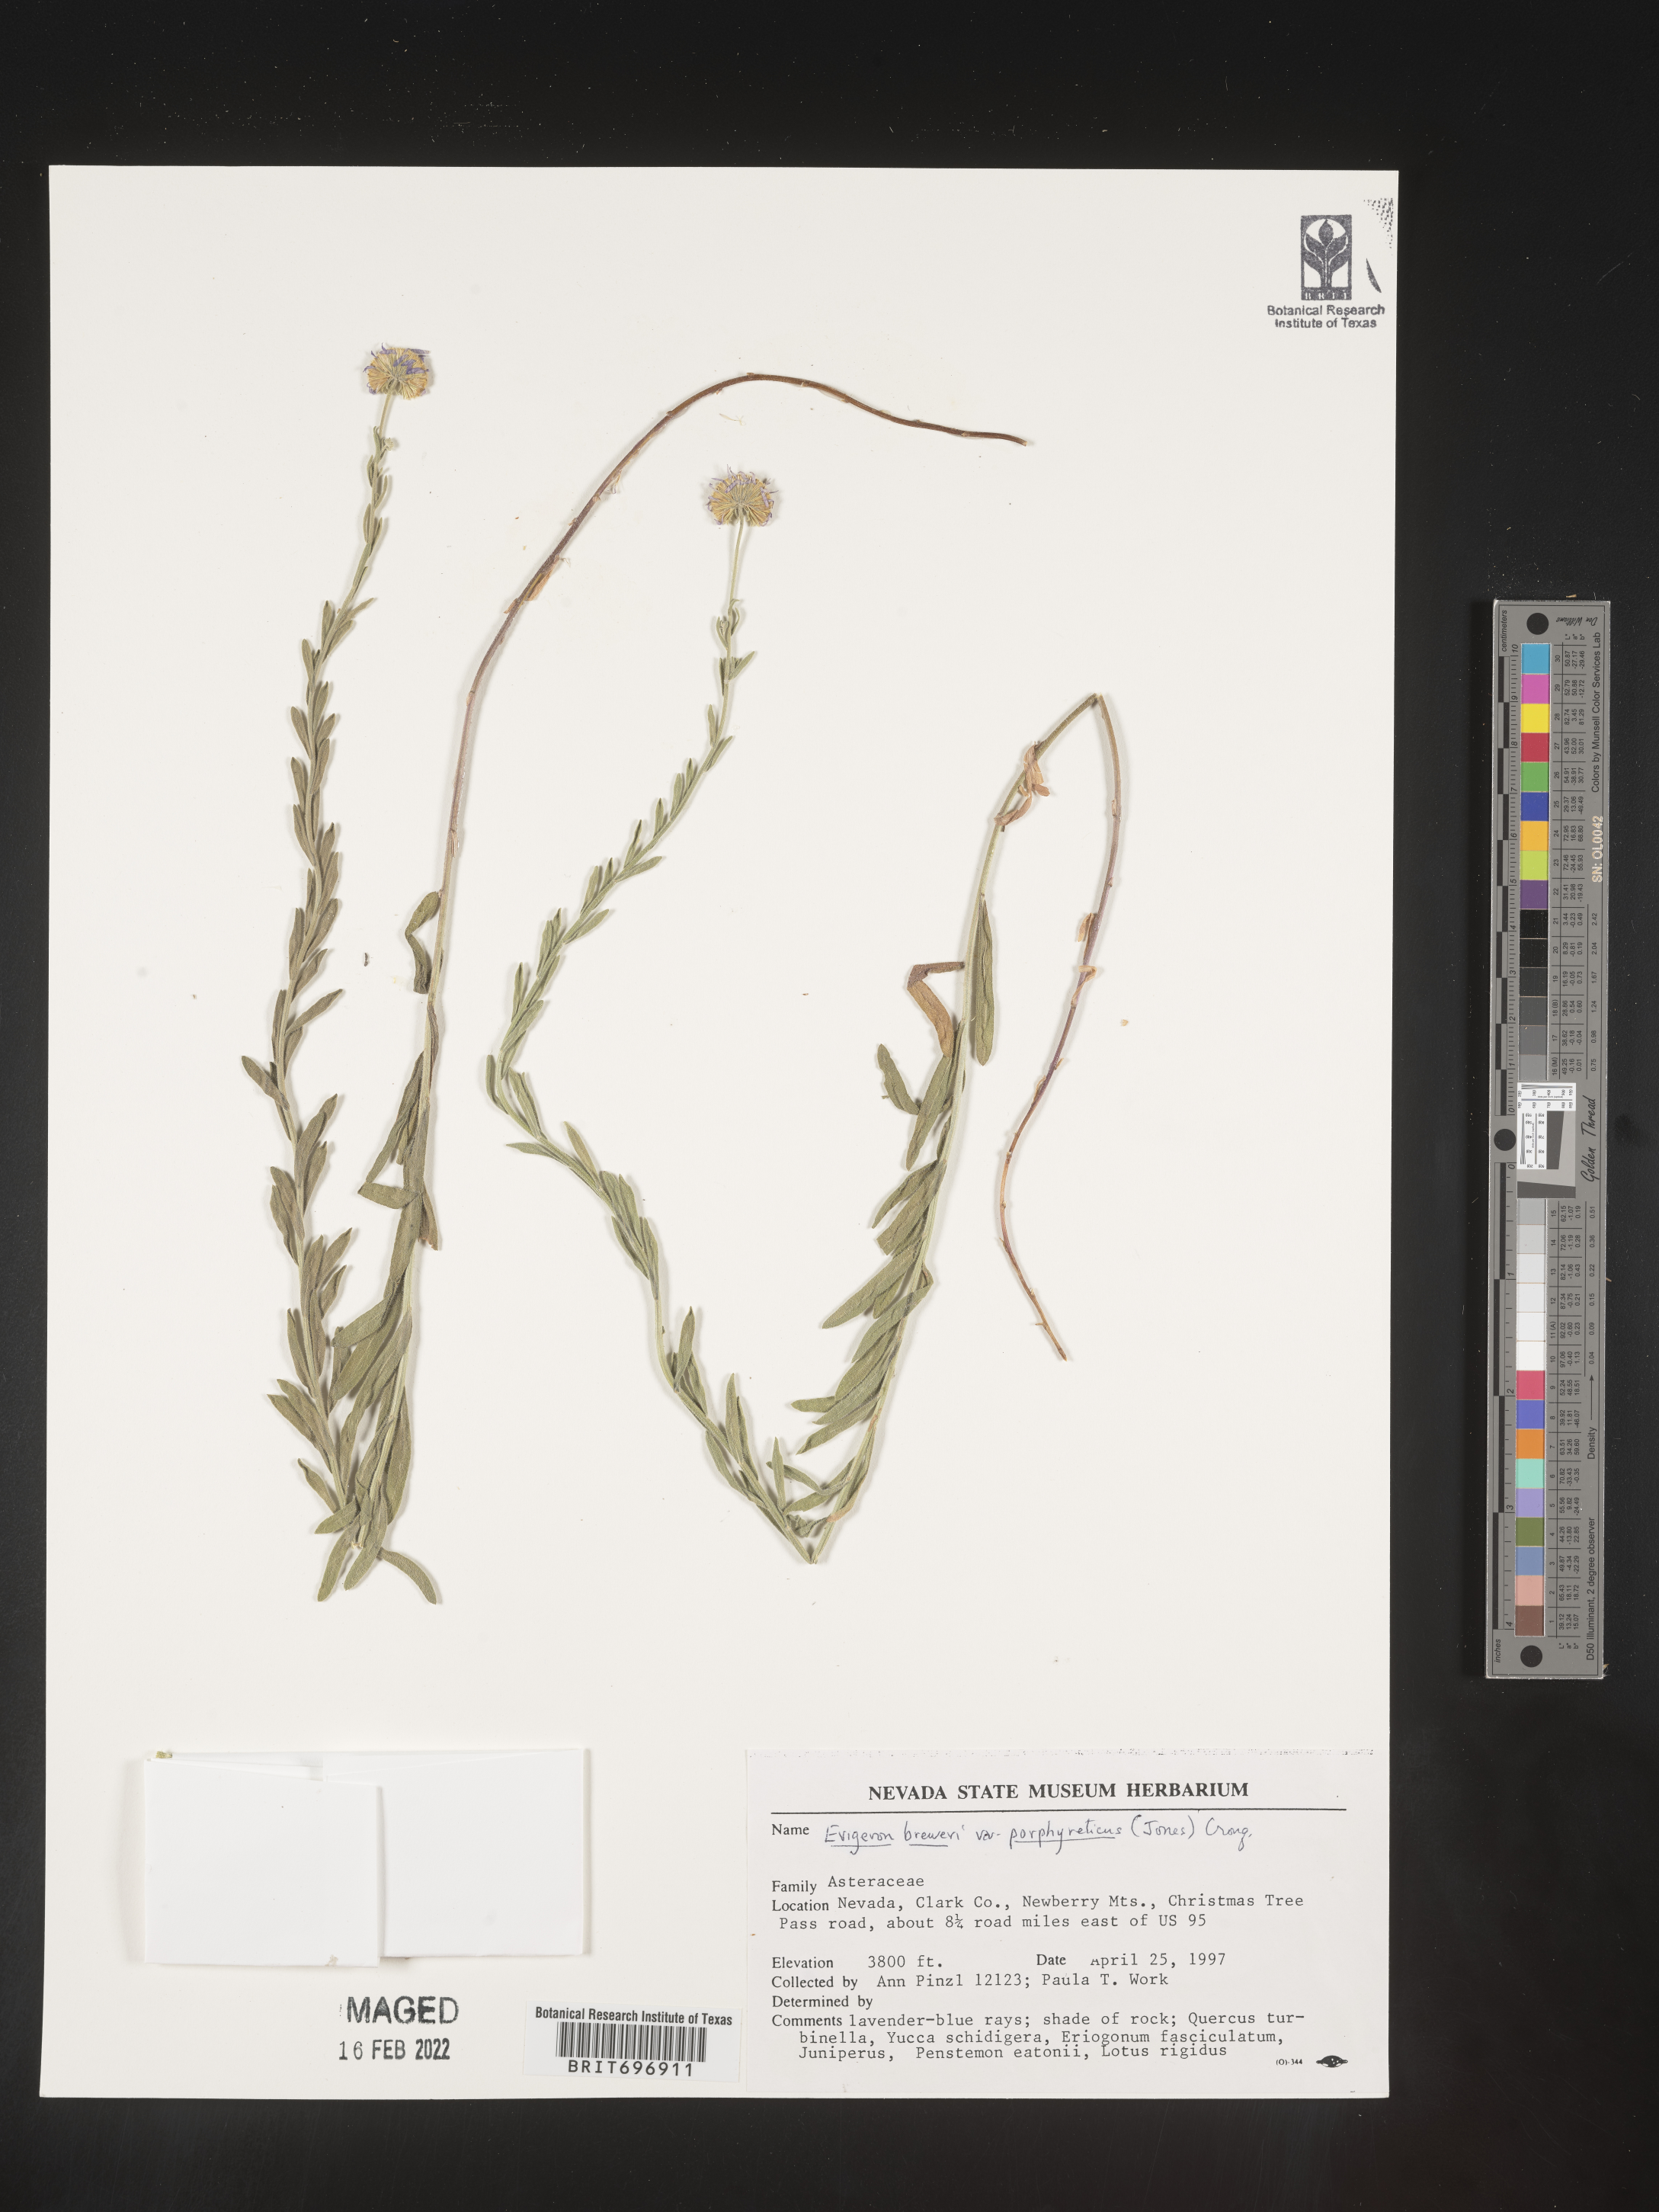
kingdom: Plantae
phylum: Tracheophyta
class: Magnoliopsida
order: Asterales
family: Asteraceae
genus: Erigeron
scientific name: Erigeron breweri
